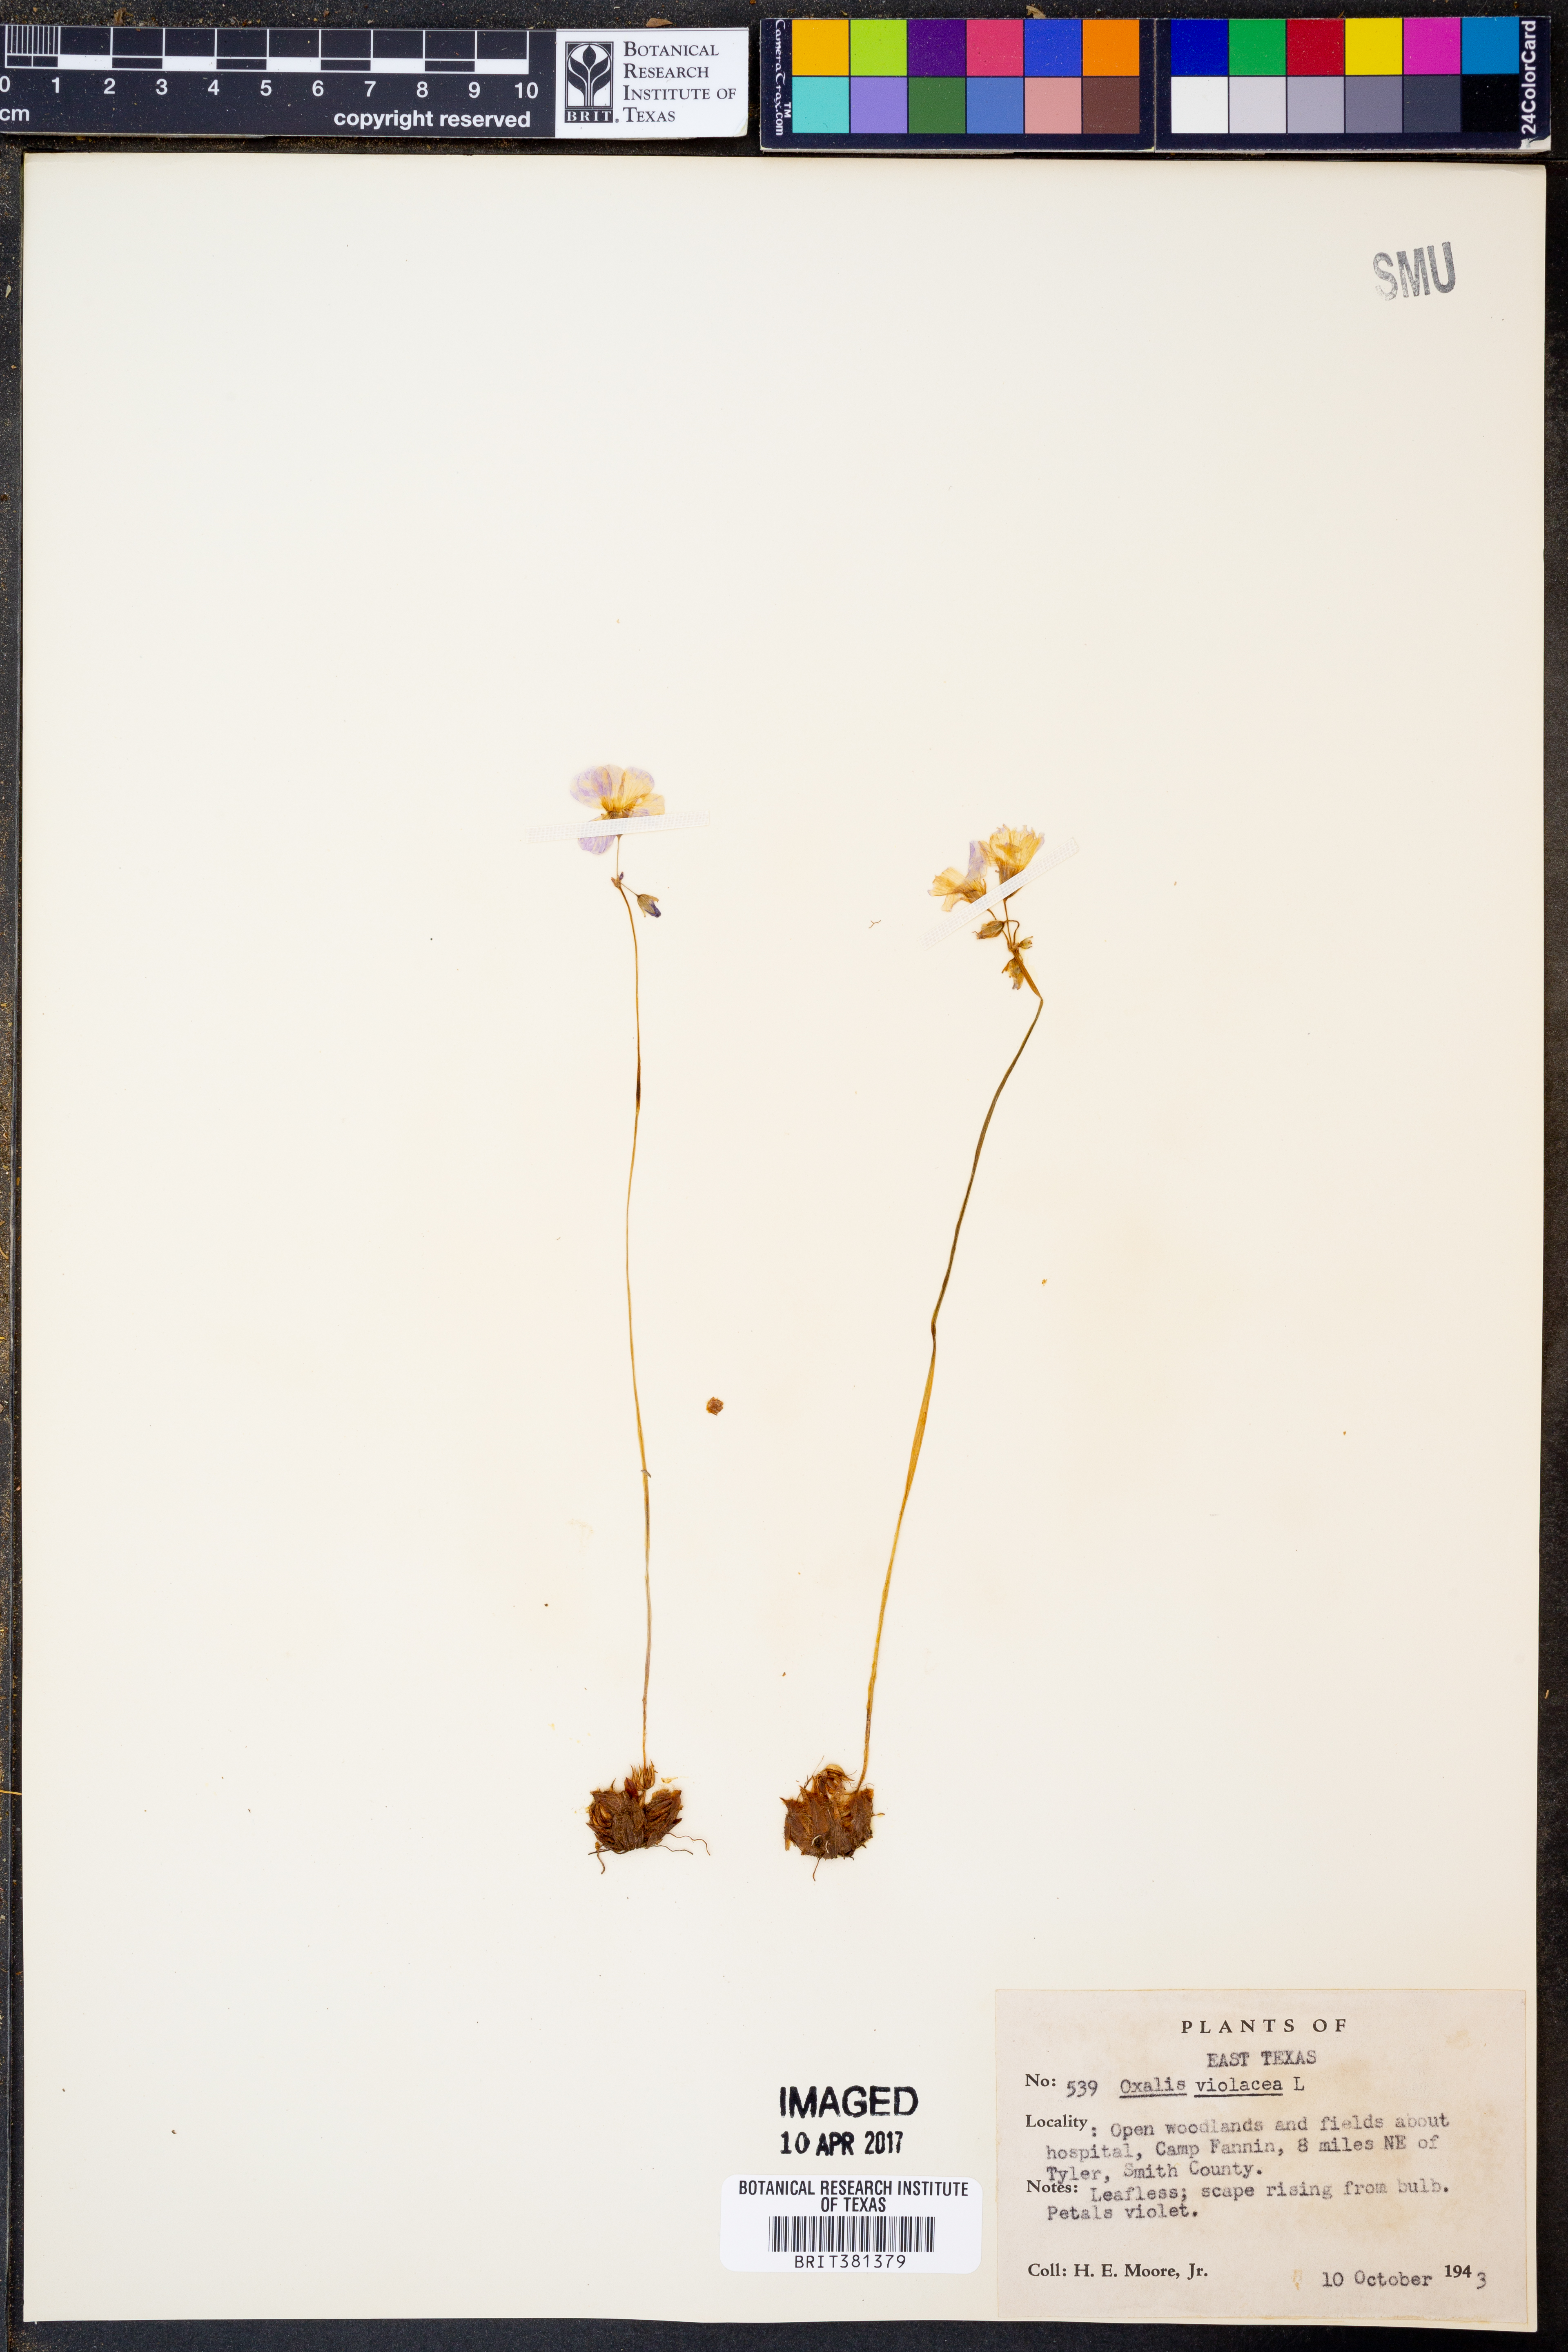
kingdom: Plantae
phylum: Tracheophyta
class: Magnoliopsida
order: Oxalidales
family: Oxalidaceae
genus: Oxalis
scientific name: Oxalis violacea
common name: Violet wood-sorrel
